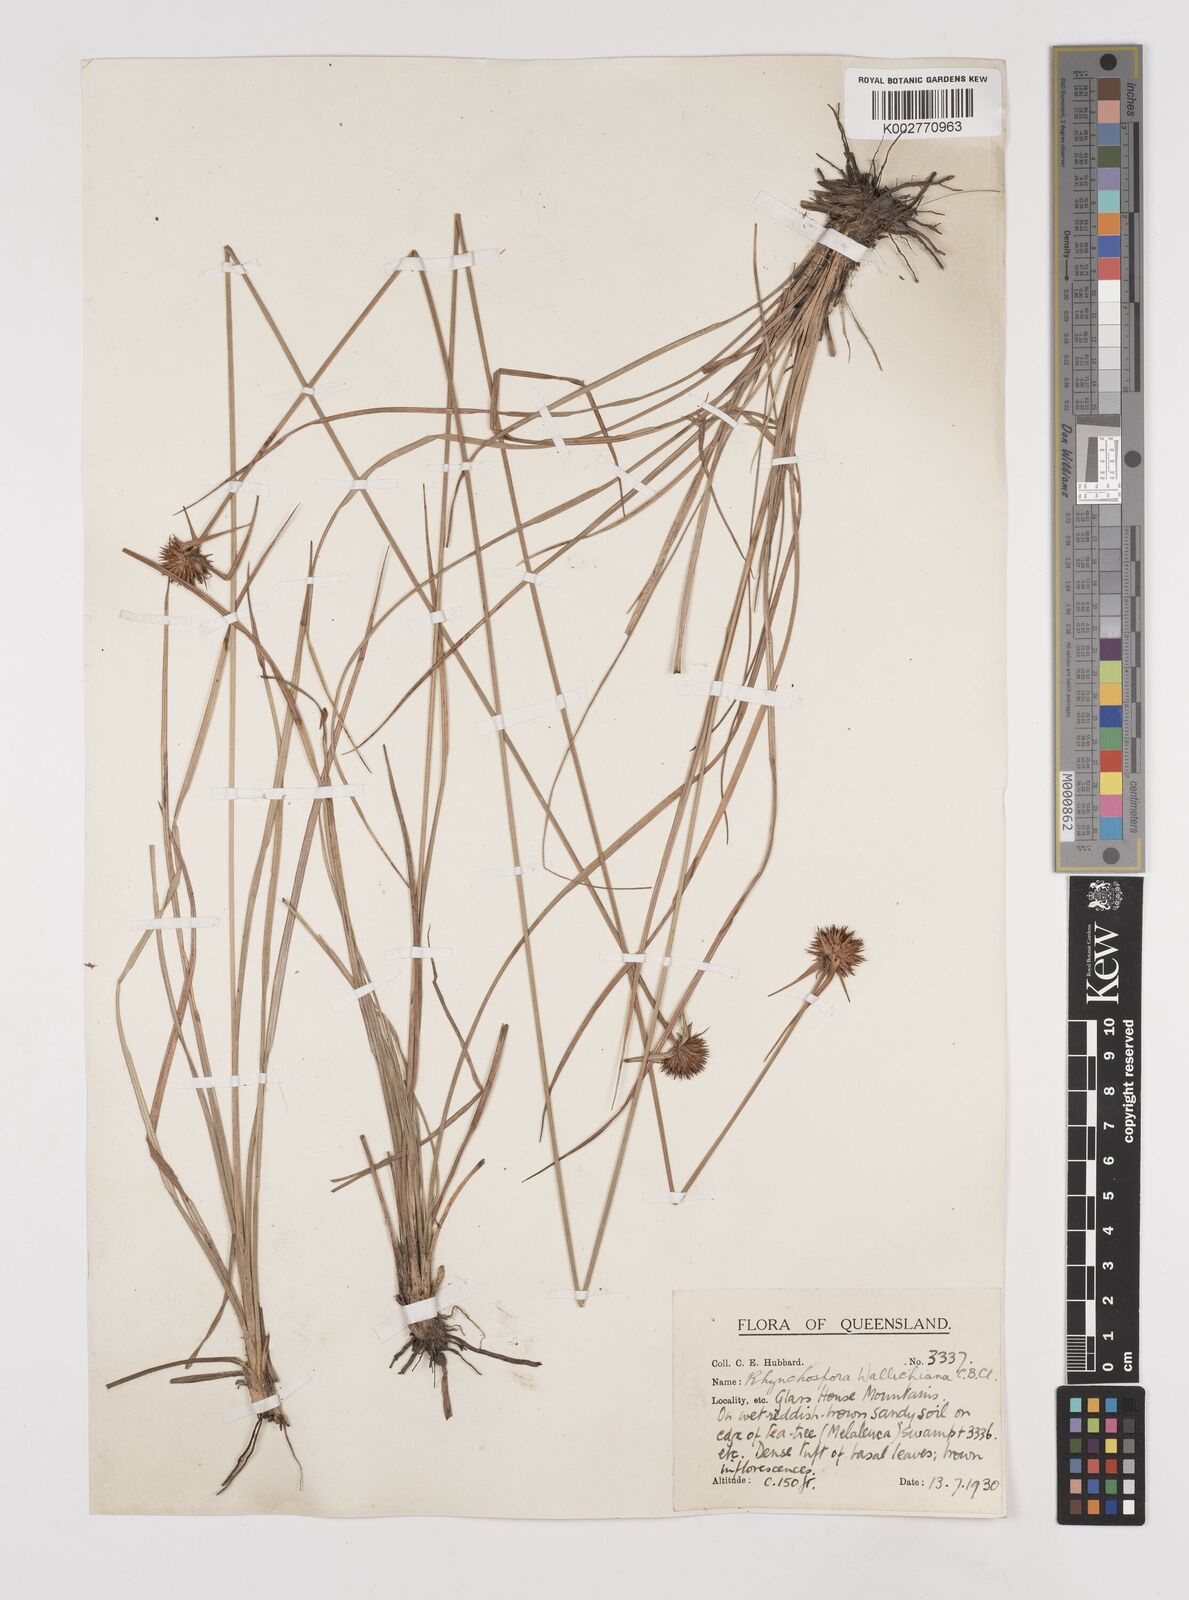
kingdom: Plantae
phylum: Tracheophyta
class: Liliopsida
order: Poales
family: Cyperaceae
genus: Rhynchospora
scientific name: Rhynchospora rubra
